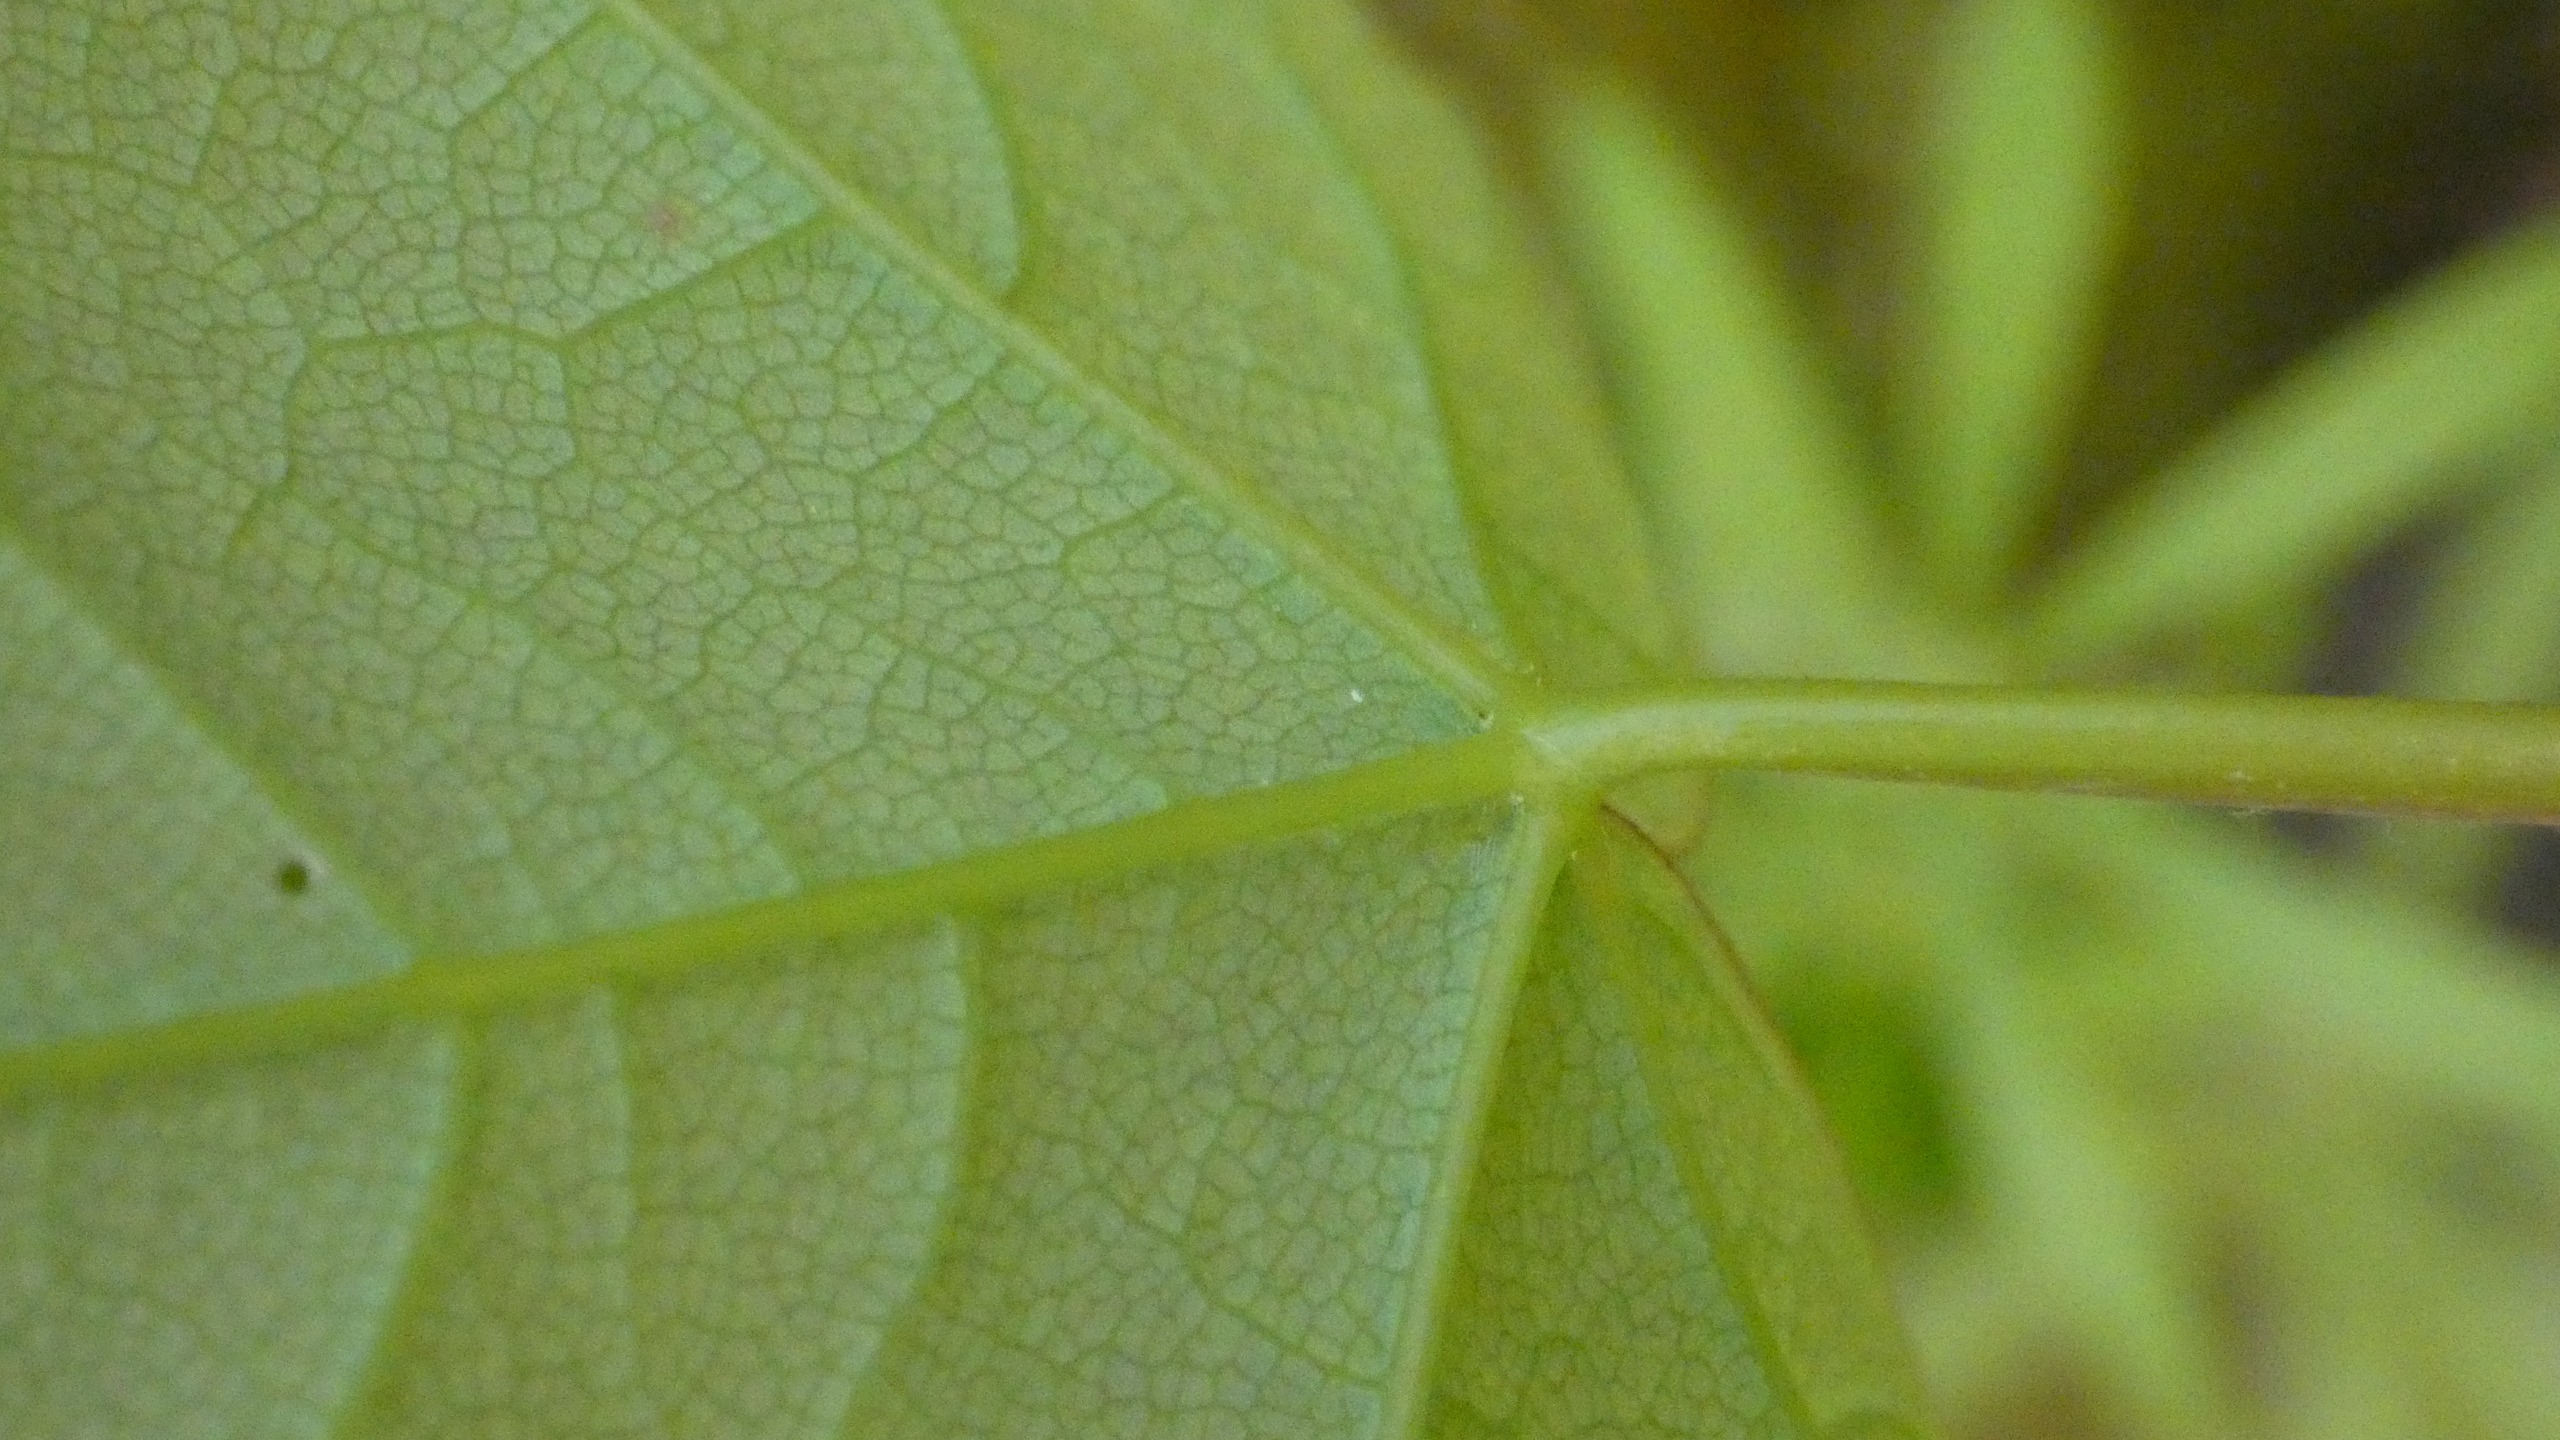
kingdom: Plantae
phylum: Tracheophyta
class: Magnoliopsida
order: Sapindales
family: Sapindaceae
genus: Acer
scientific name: Acer pseudoplatanus
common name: Ahorn
